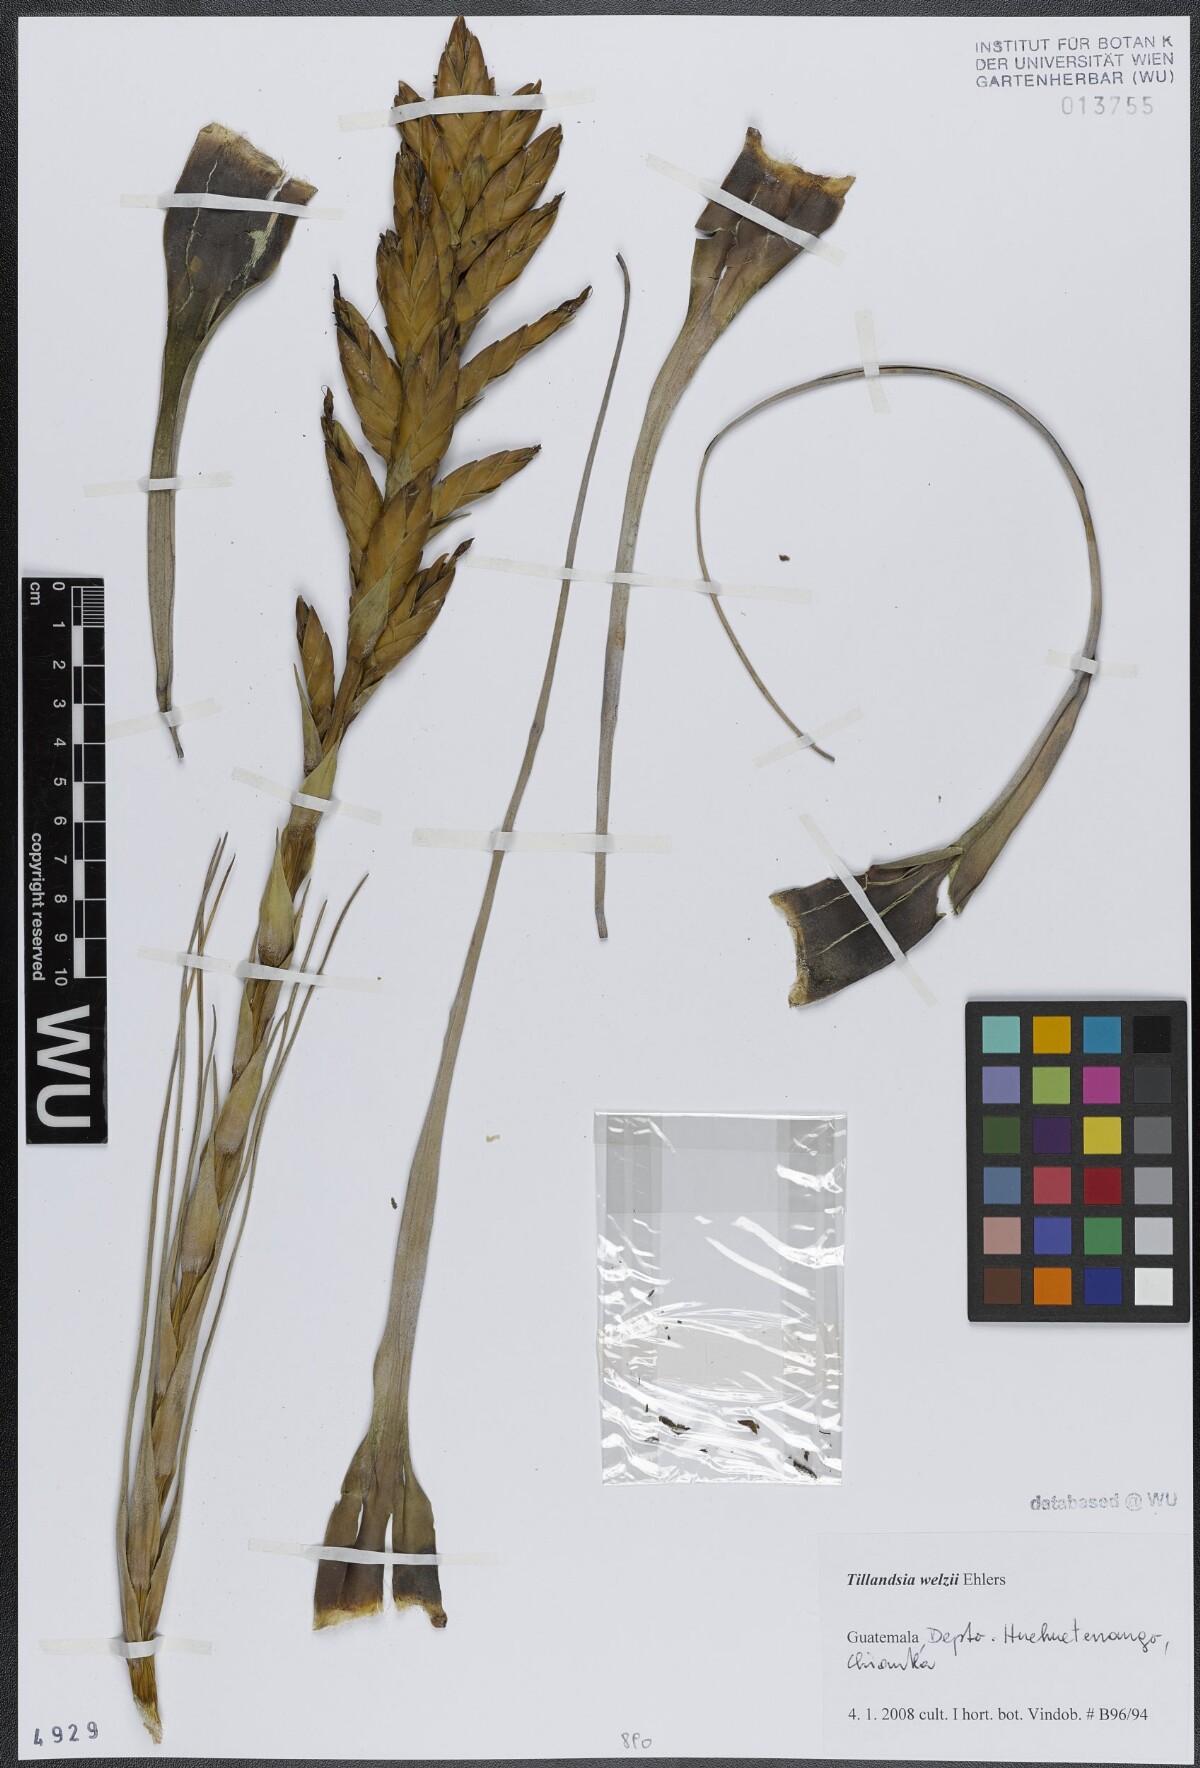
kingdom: Plantae
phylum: Tracheophyta
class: Liliopsida
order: Poales
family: Bromeliaceae
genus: Tillandsia
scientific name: Tillandsia welzii
